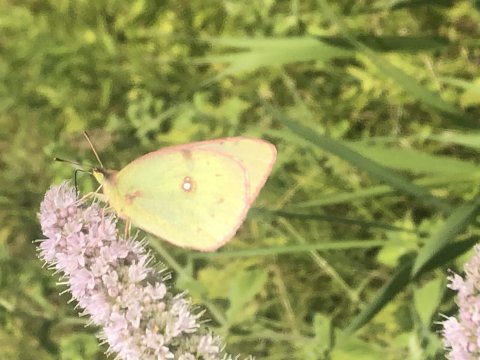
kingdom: Animalia
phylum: Arthropoda
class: Insecta
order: Lepidoptera
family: Pieridae
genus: Colias
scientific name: Colias philodice
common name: Clouded Sulphur
